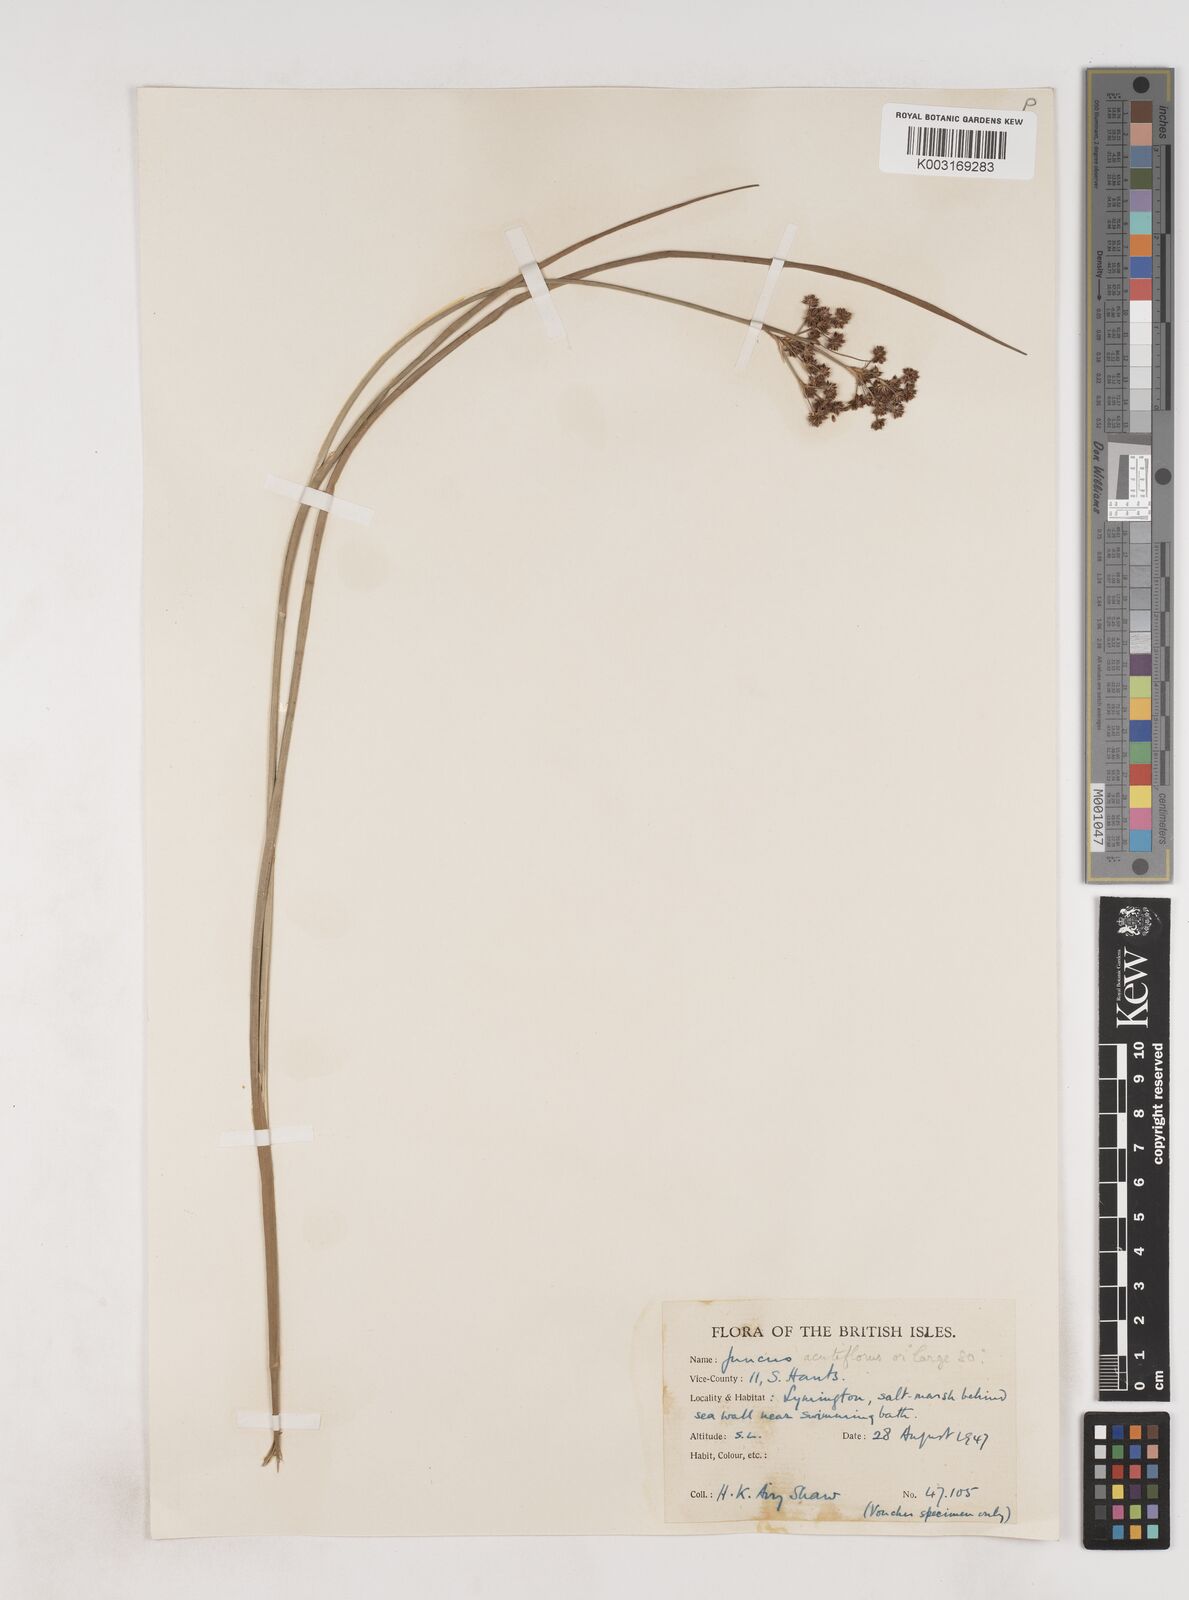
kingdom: Plantae
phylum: Tracheophyta
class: Liliopsida
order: Poales
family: Juncaceae
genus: Juncus
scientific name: Juncus acutiflorus
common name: Sharp-flowered rush
